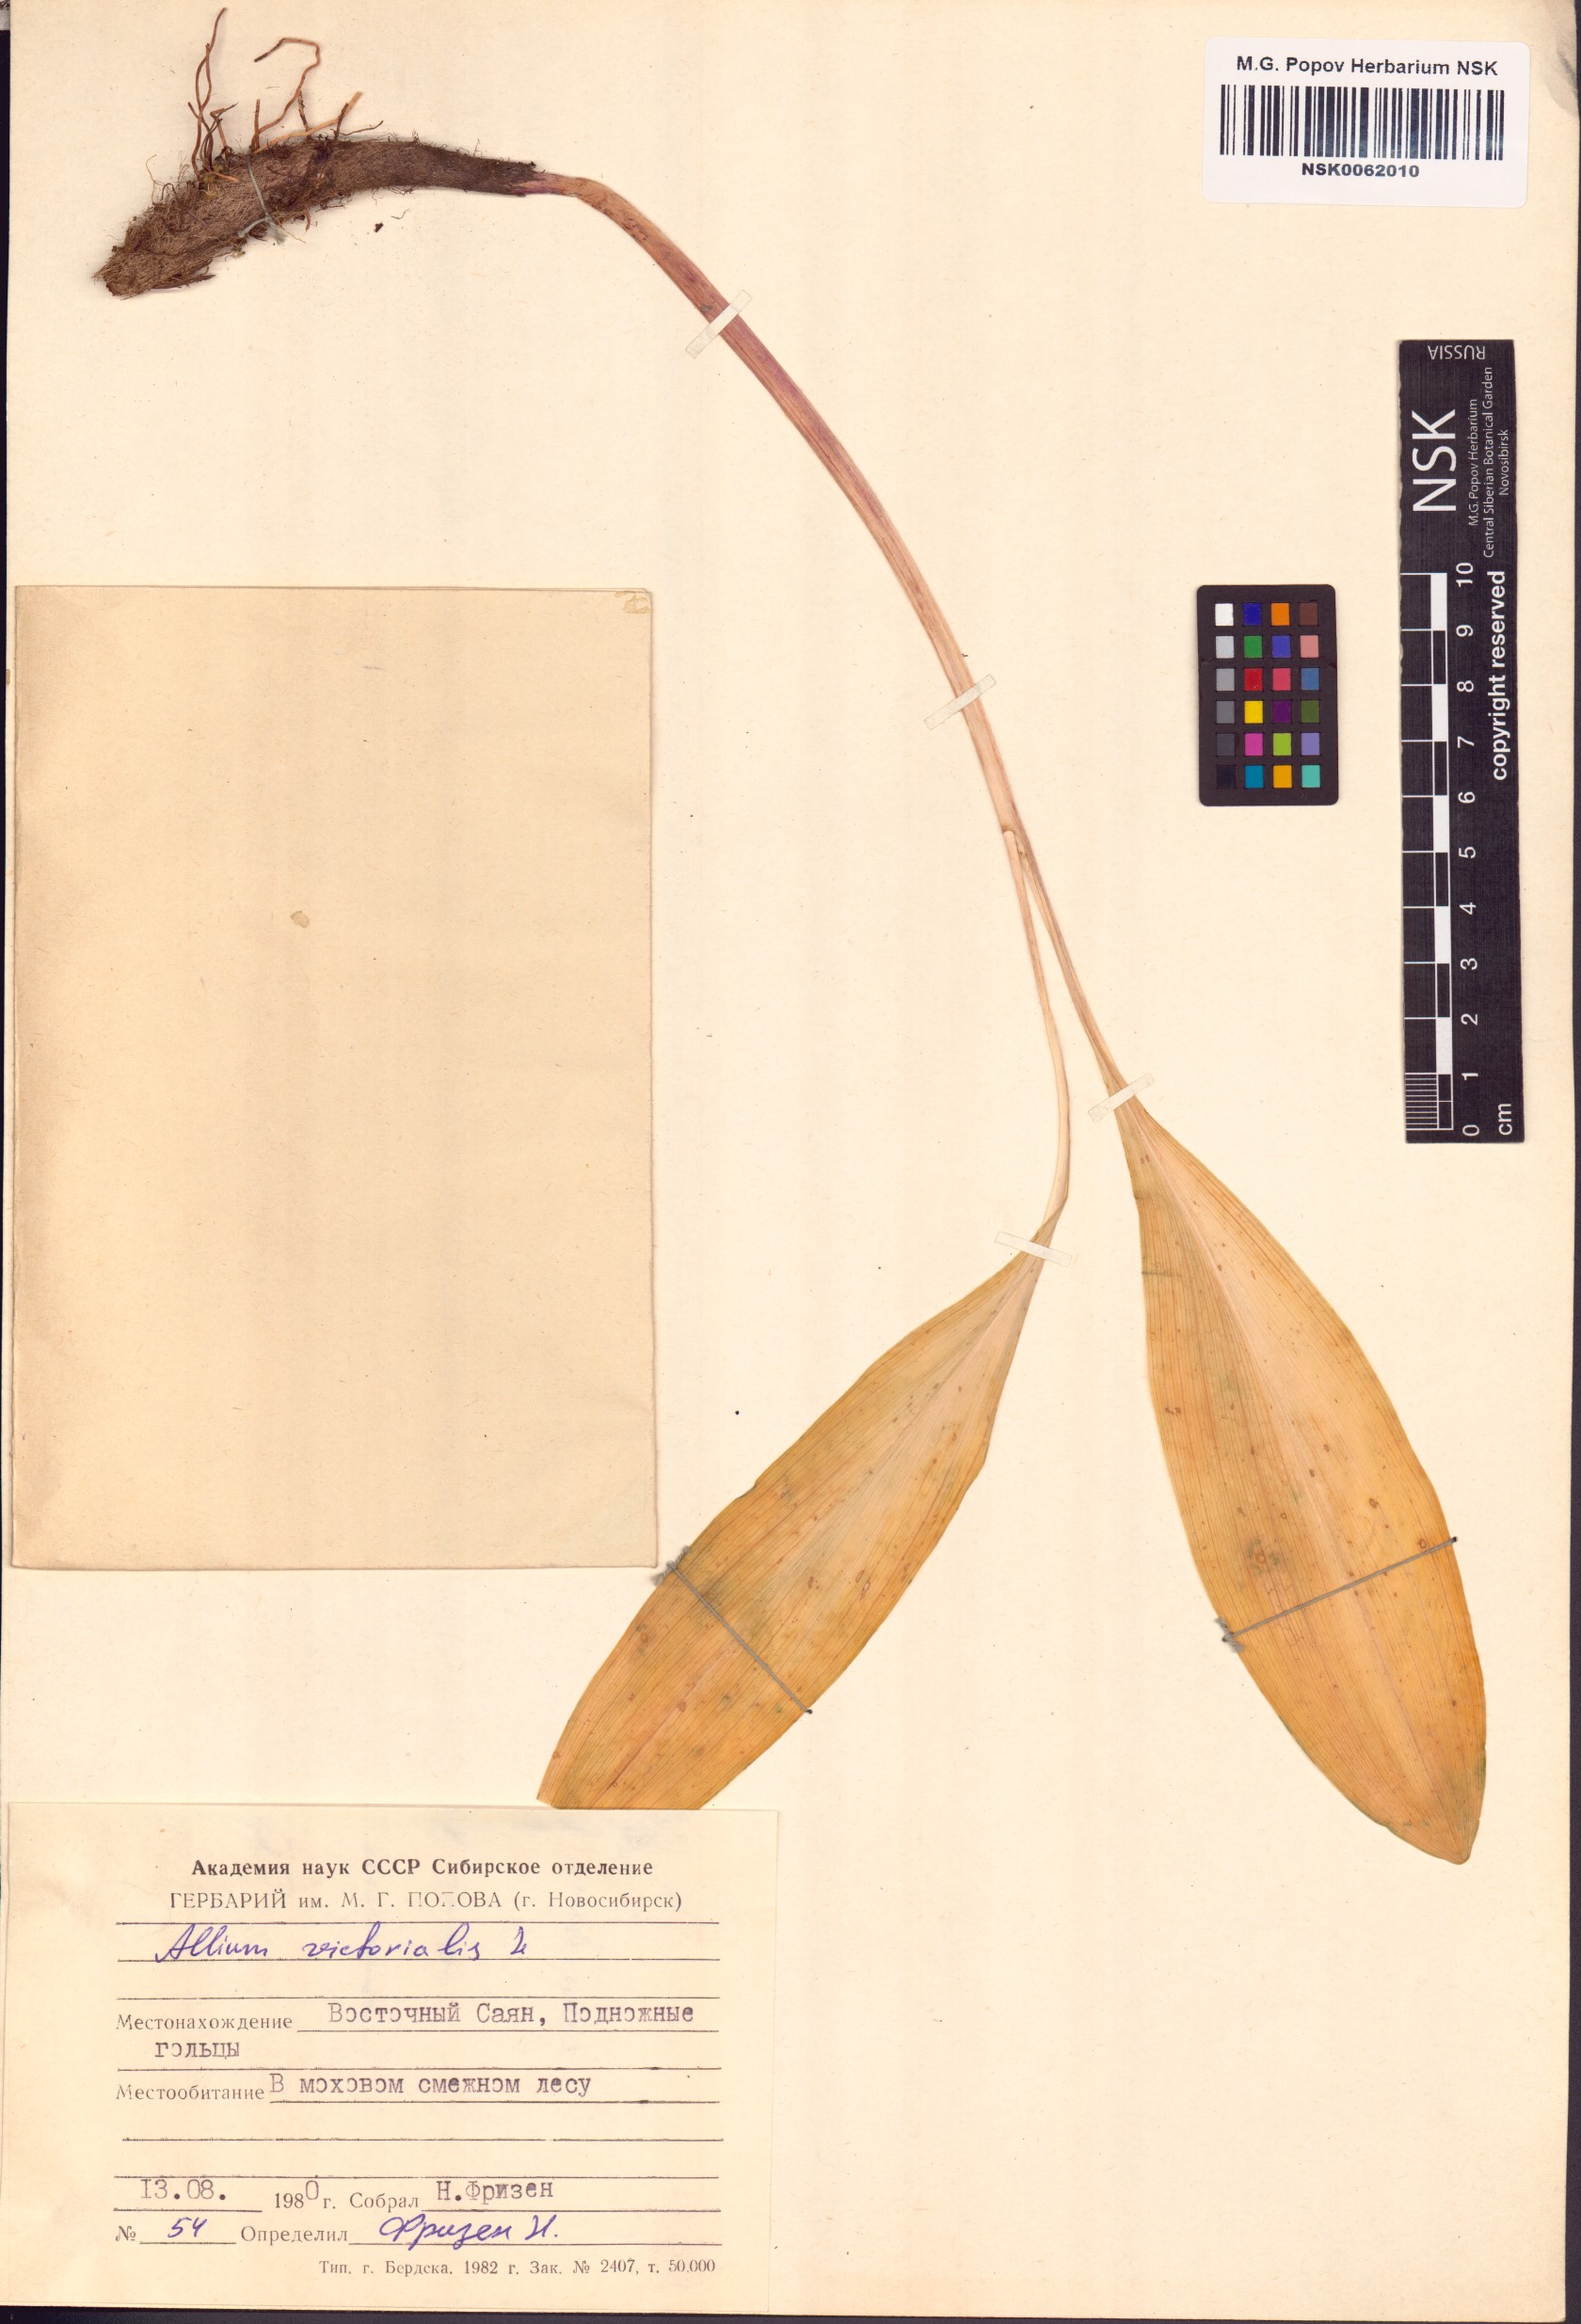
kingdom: Plantae
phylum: Tracheophyta
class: Liliopsida
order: Asparagales
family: Amaryllidaceae
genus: Allium
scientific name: Allium victorialis
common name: Alpine leek
